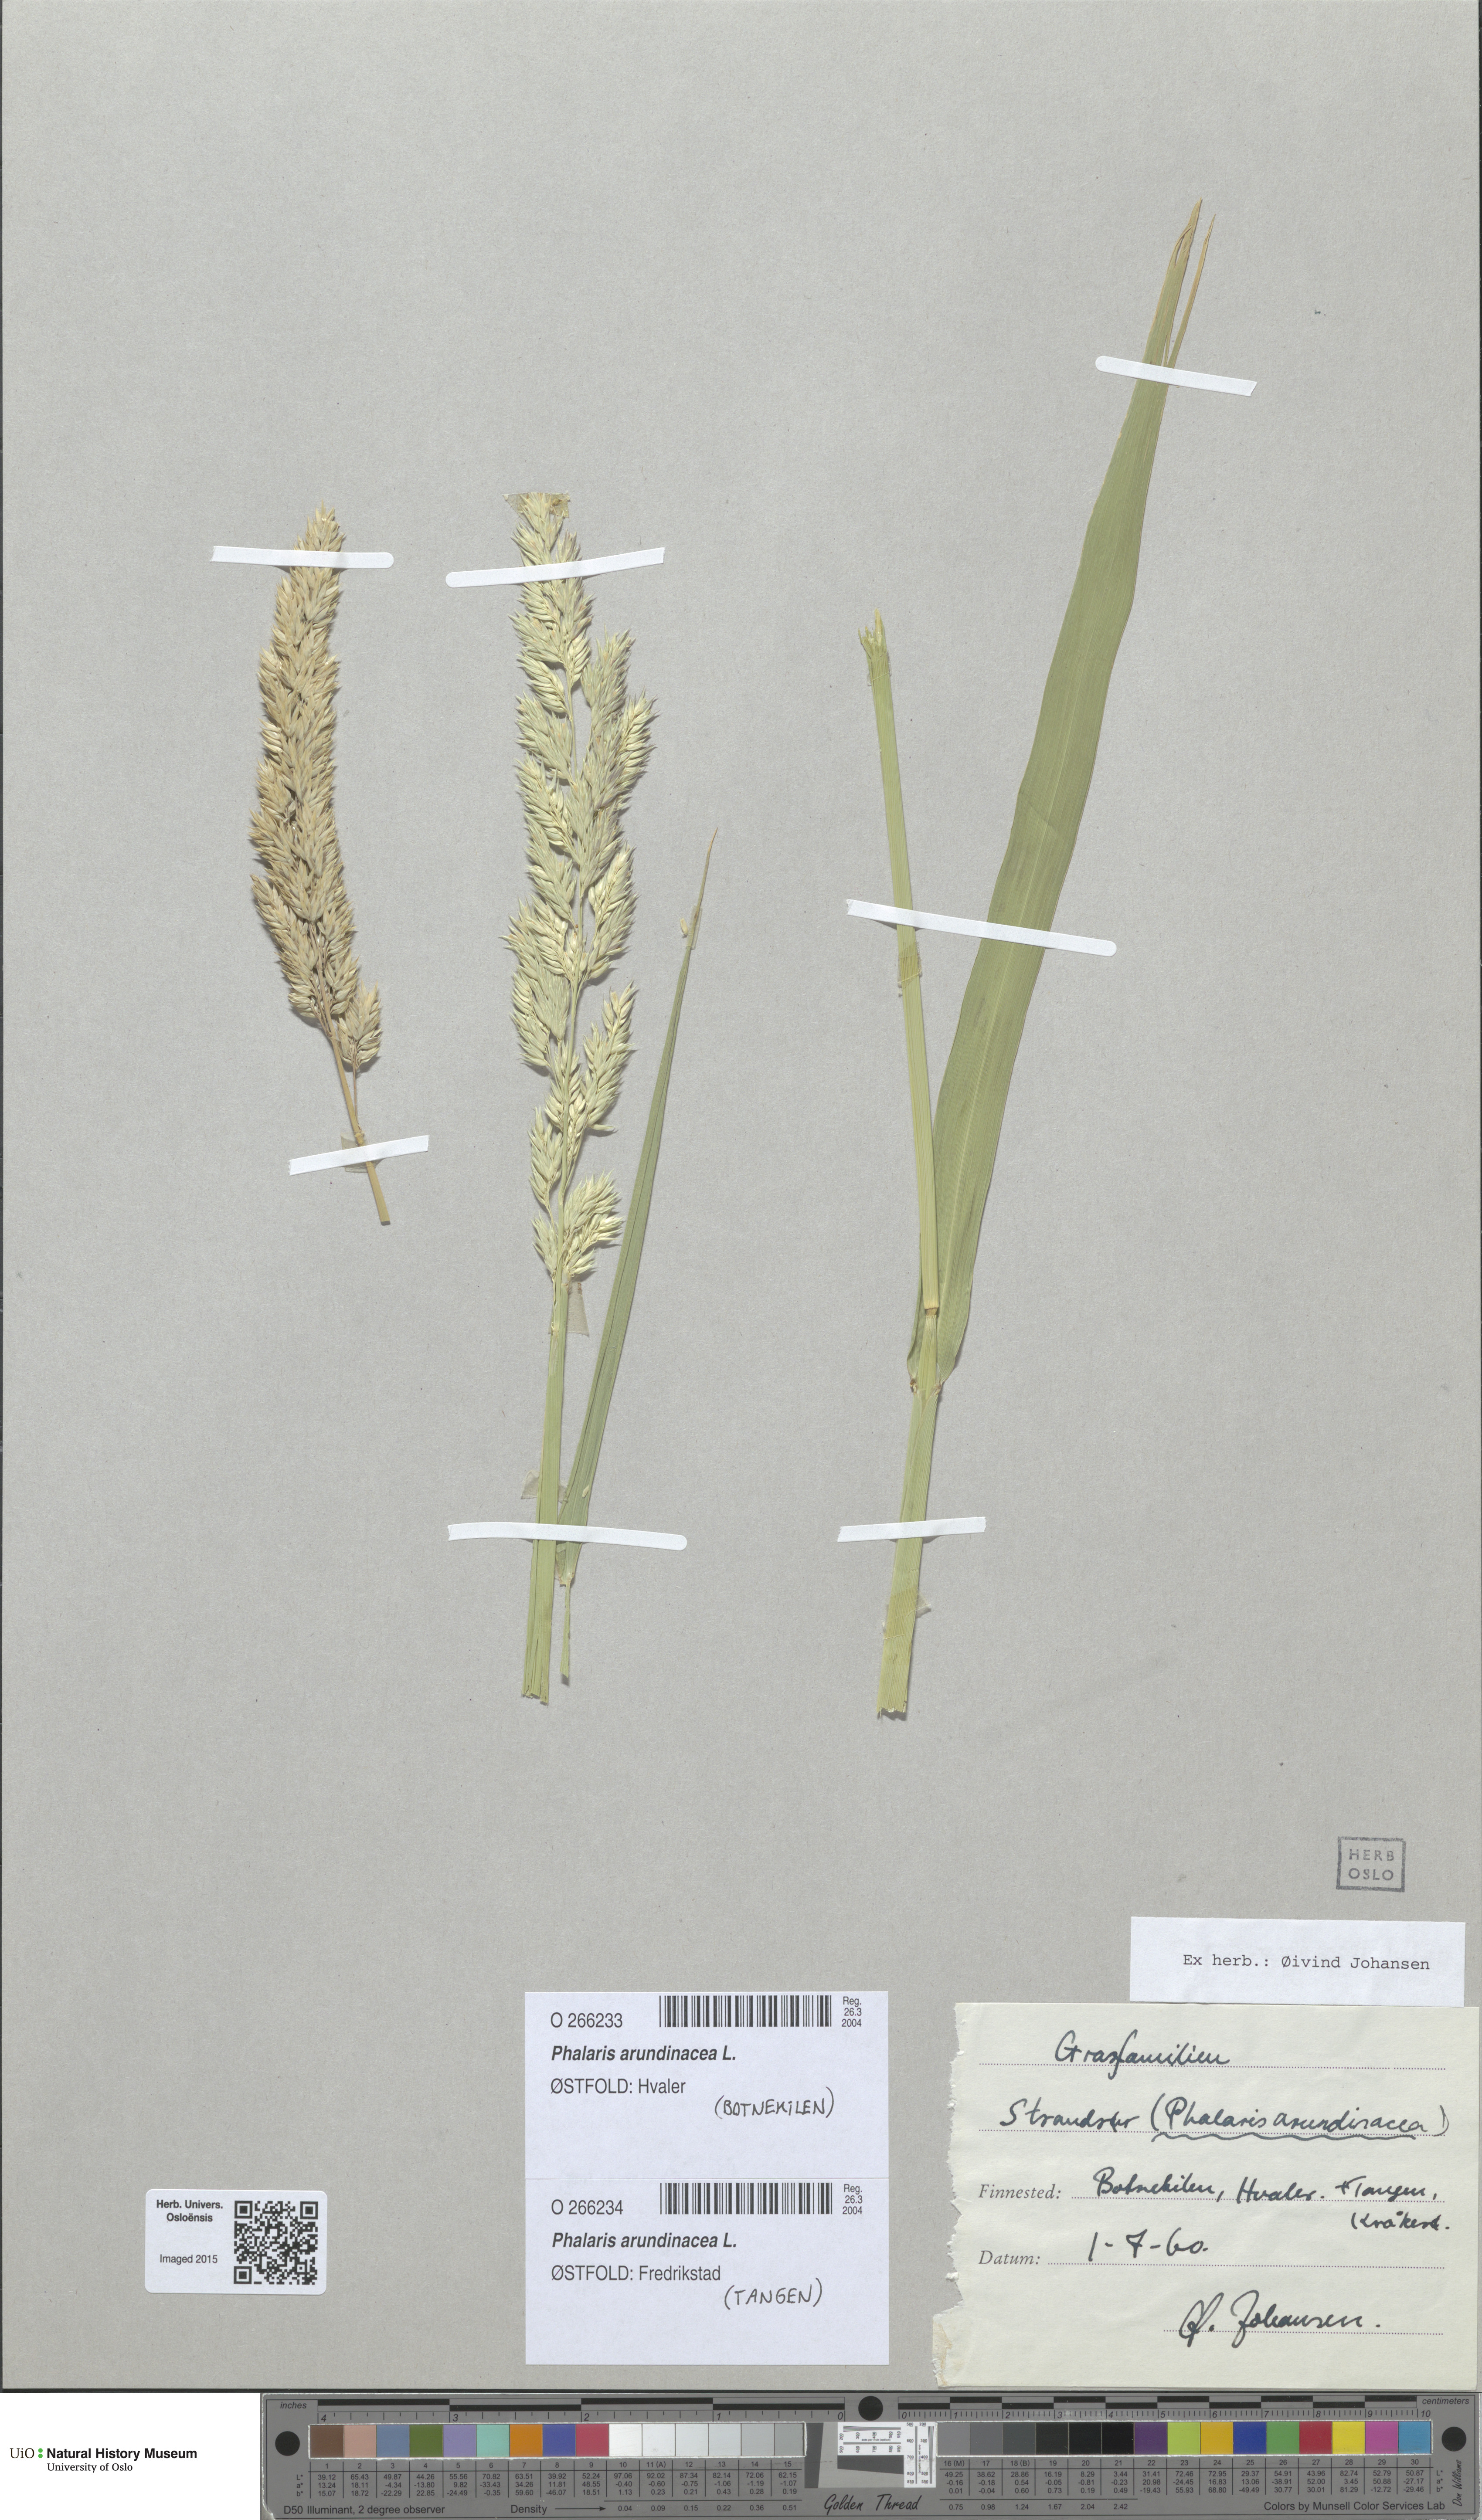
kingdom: Plantae
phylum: Tracheophyta
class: Liliopsida
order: Poales
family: Poaceae
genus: Phalaris
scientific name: Phalaris arundinacea
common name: Reed canary-grass
